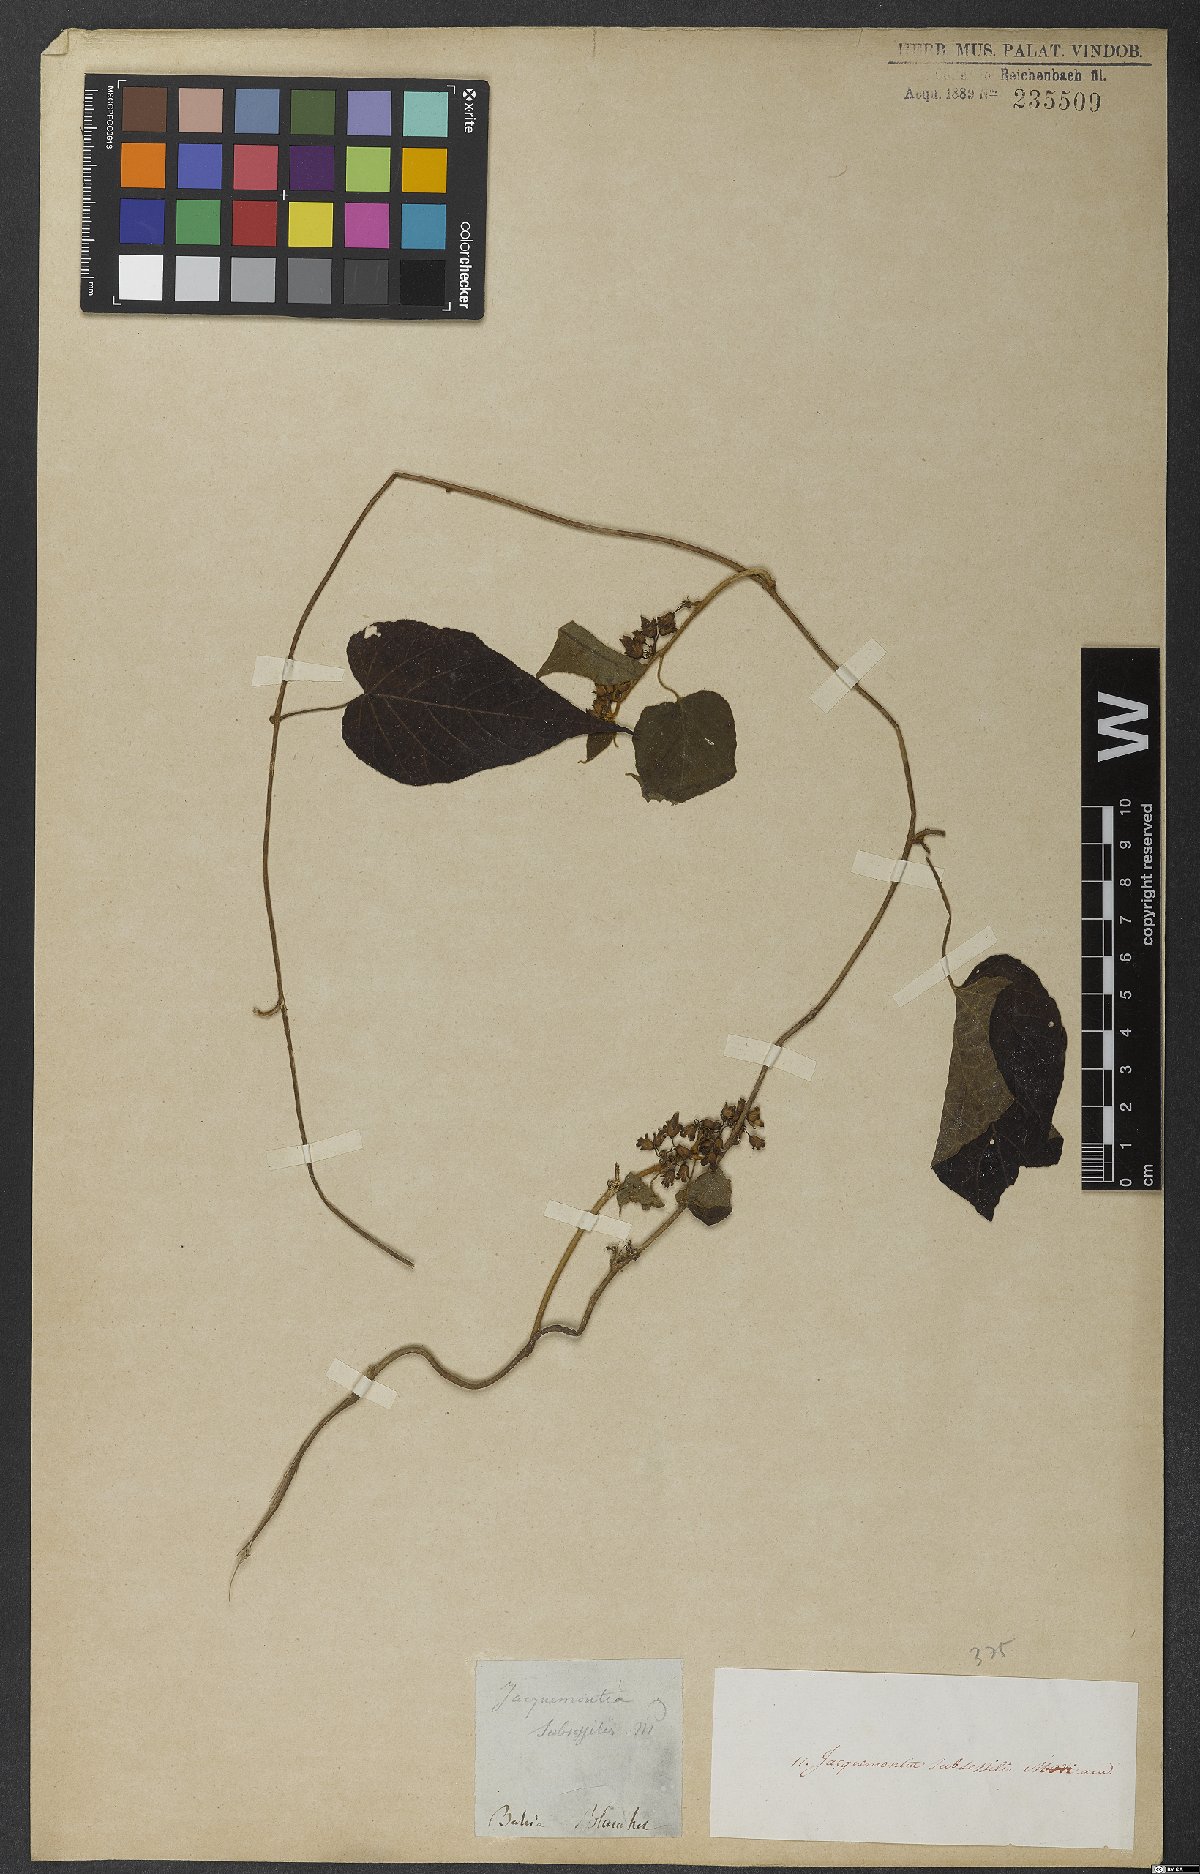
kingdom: Plantae
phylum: Tracheophyta
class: Magnoliopsida
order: Solanales
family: Convolvulaceae
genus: Jacquemontia
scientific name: Jacquemontia subsessilis
